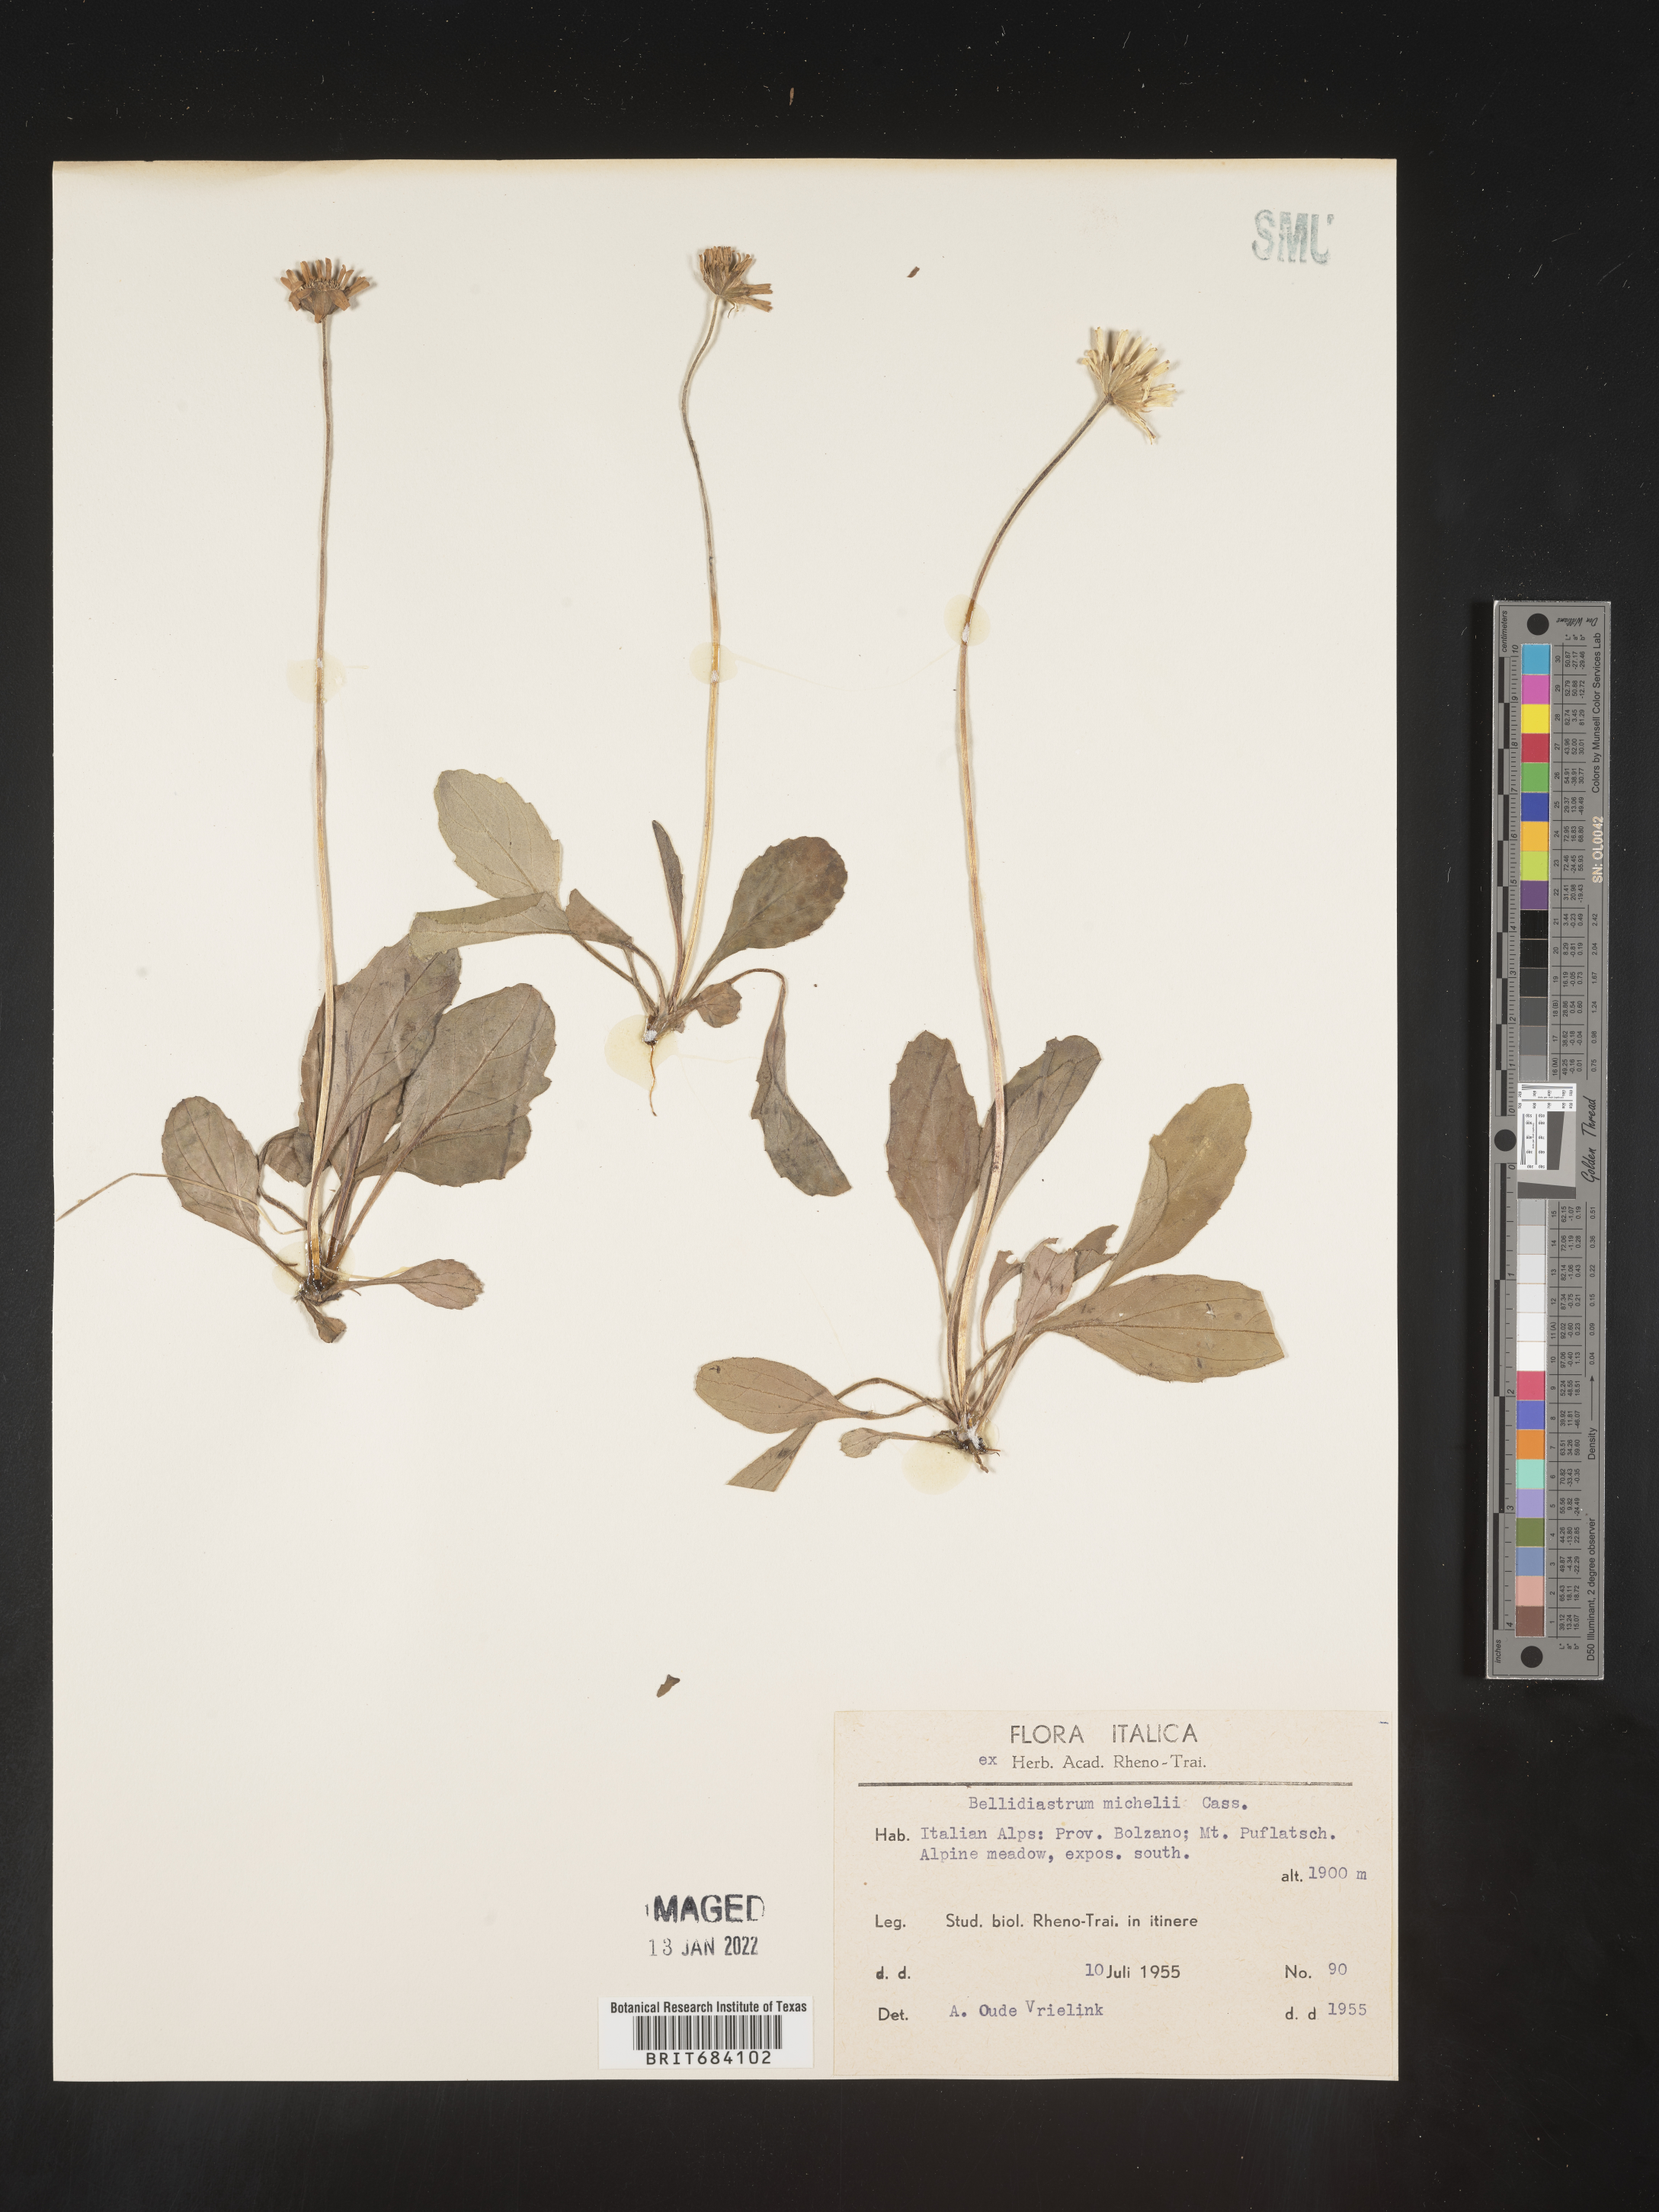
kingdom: Plantae
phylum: Tracheophyta
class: Magnoliopsida
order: Asterales
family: Asteraceae
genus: Osmitopsis
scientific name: Osmitopsis
